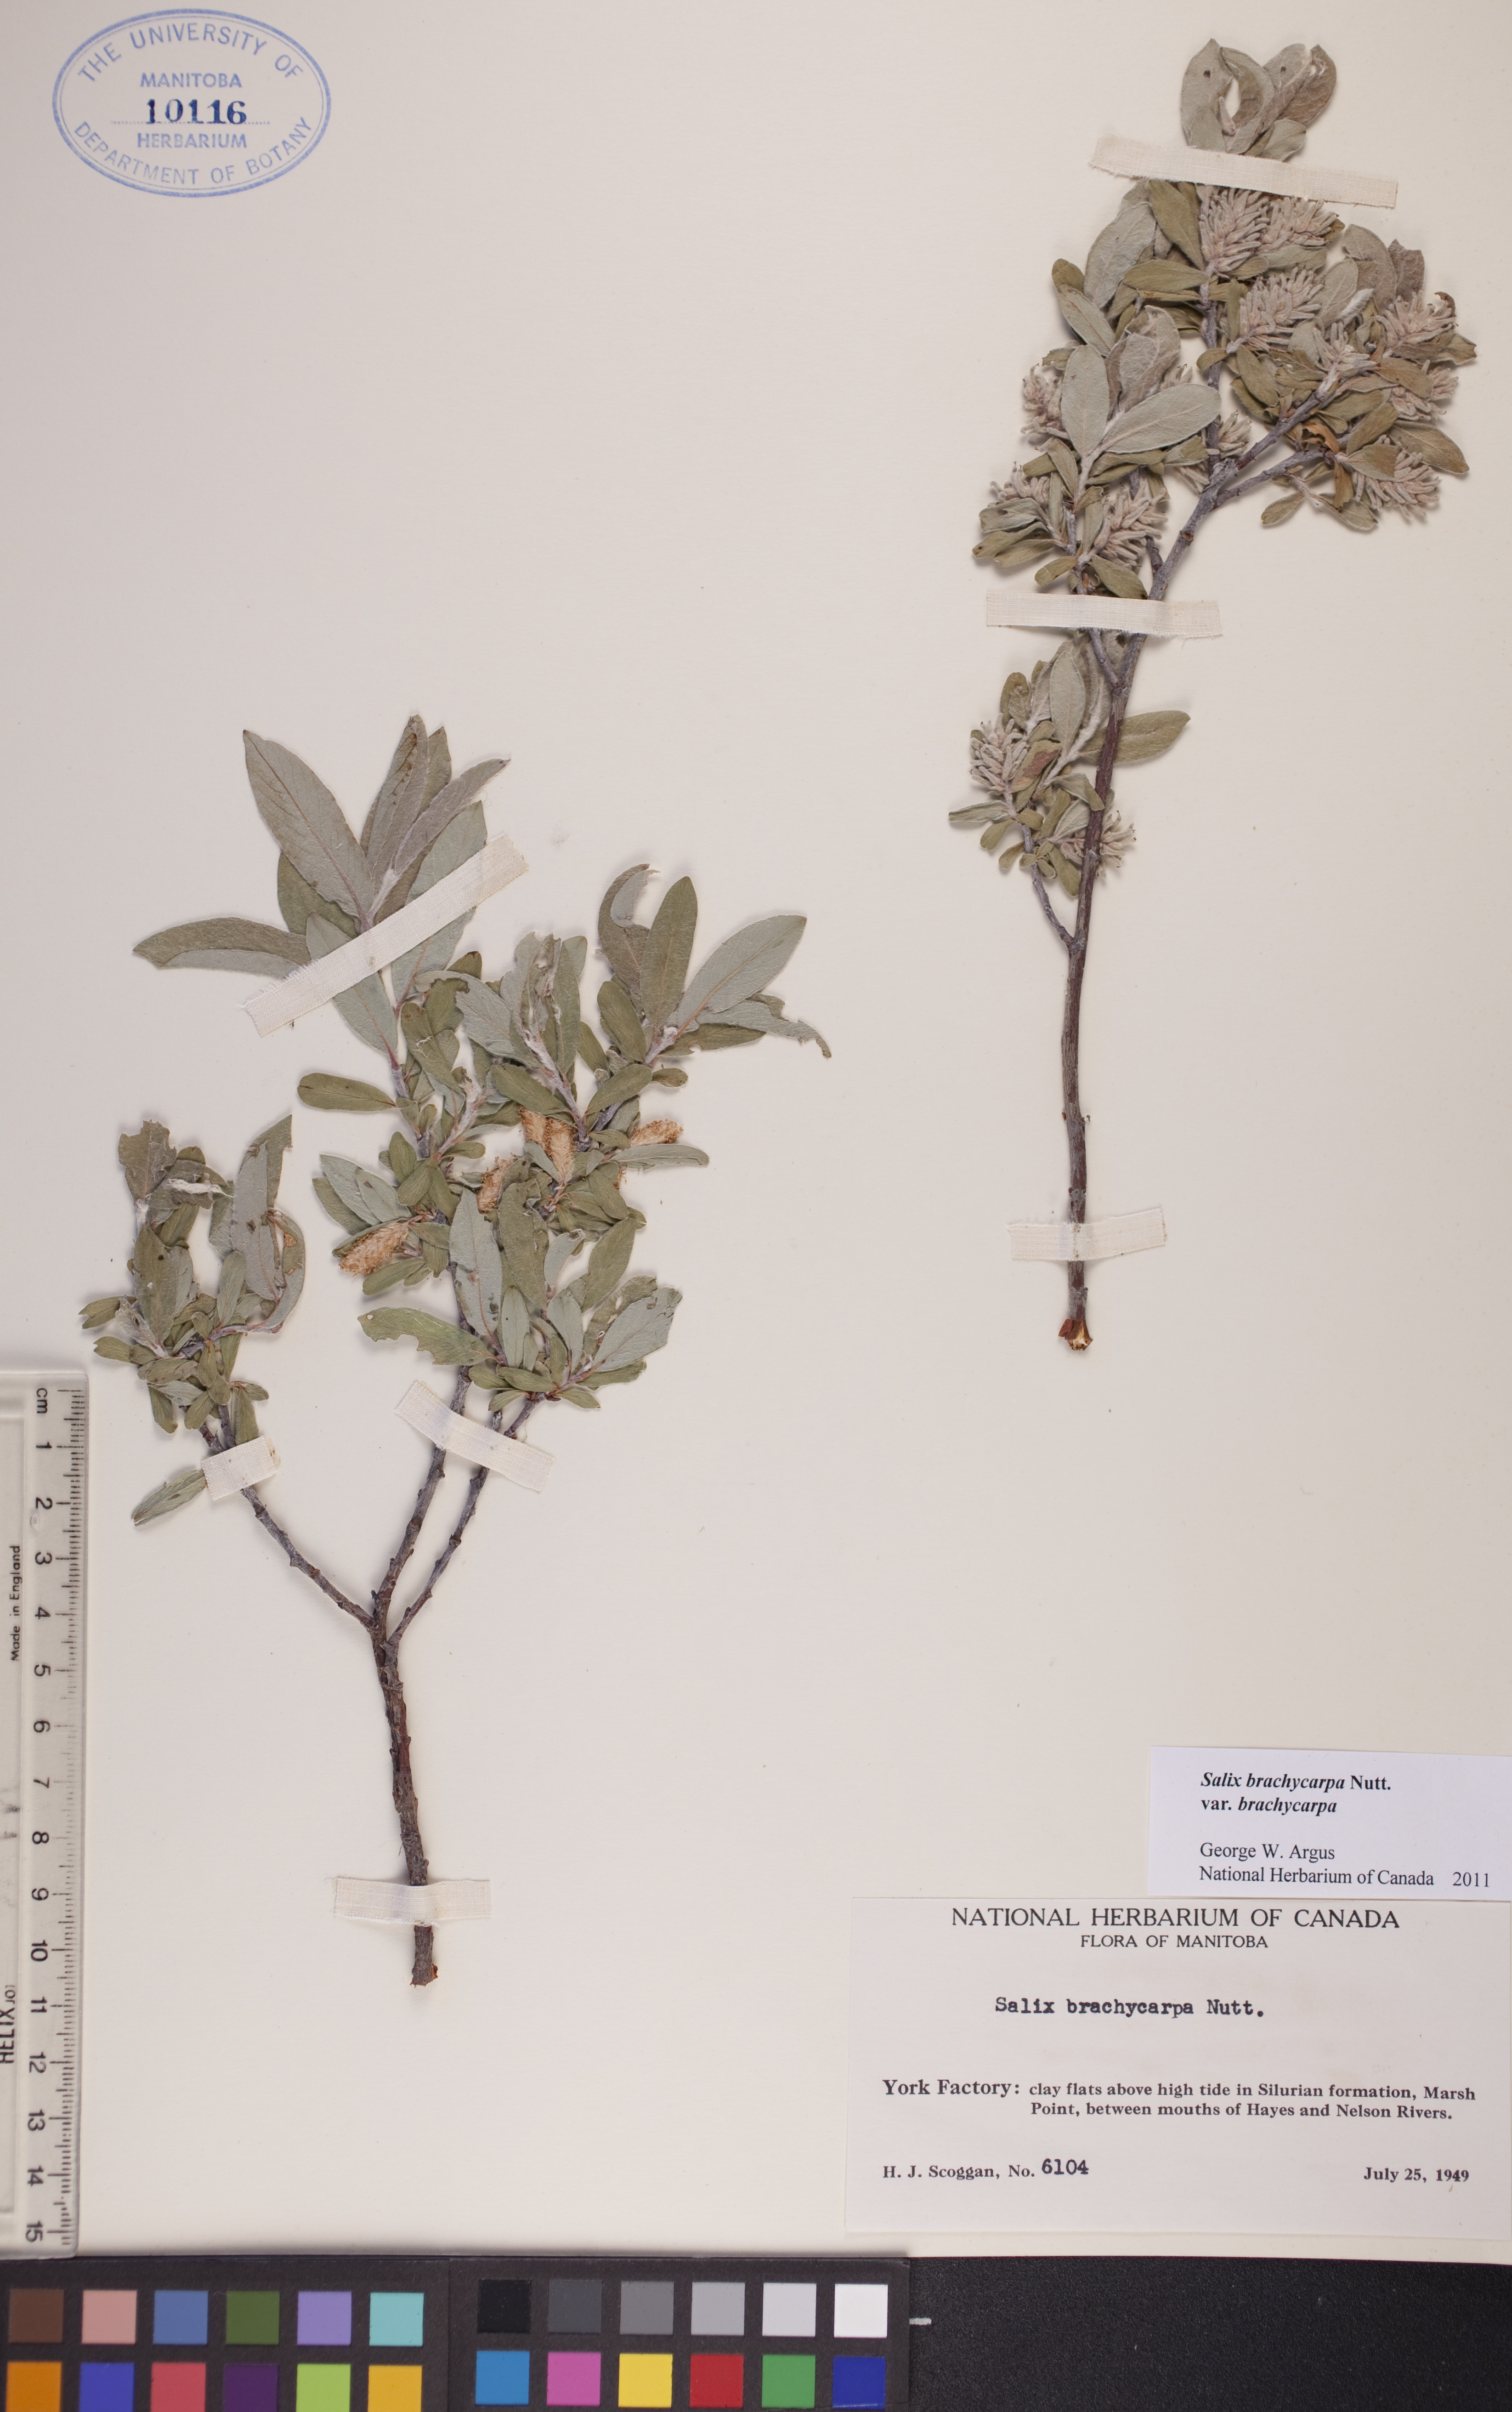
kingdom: Plantae
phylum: Tracheophyta
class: Magnoliopsida
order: Malpighiales
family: Salicaceae
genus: Salix
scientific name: Salix brachycarpa
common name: Barren-ground willow
